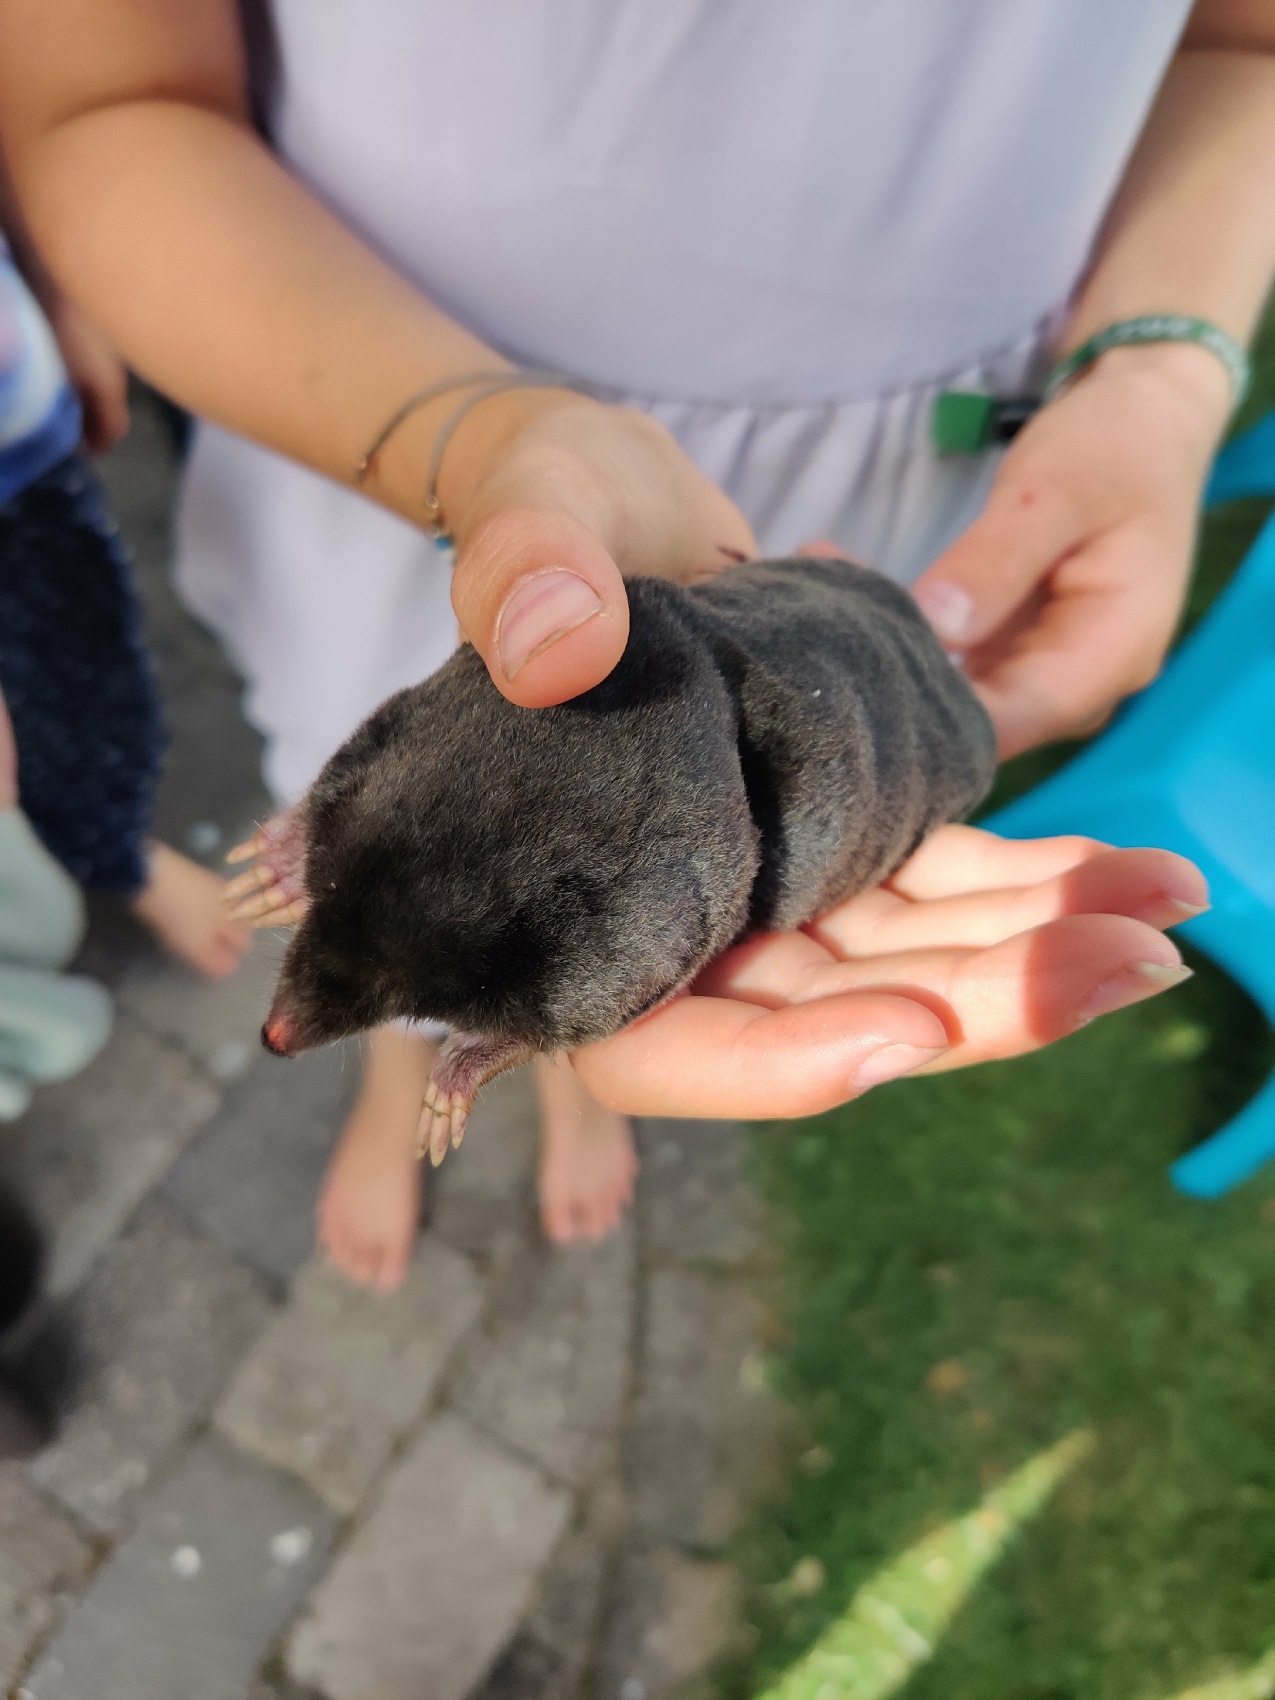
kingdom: Animalia
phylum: Chordata
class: Mammalia
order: Soricomorpha
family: Talpidae
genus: Talpa
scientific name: Talpa europaea
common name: Muldvarp
